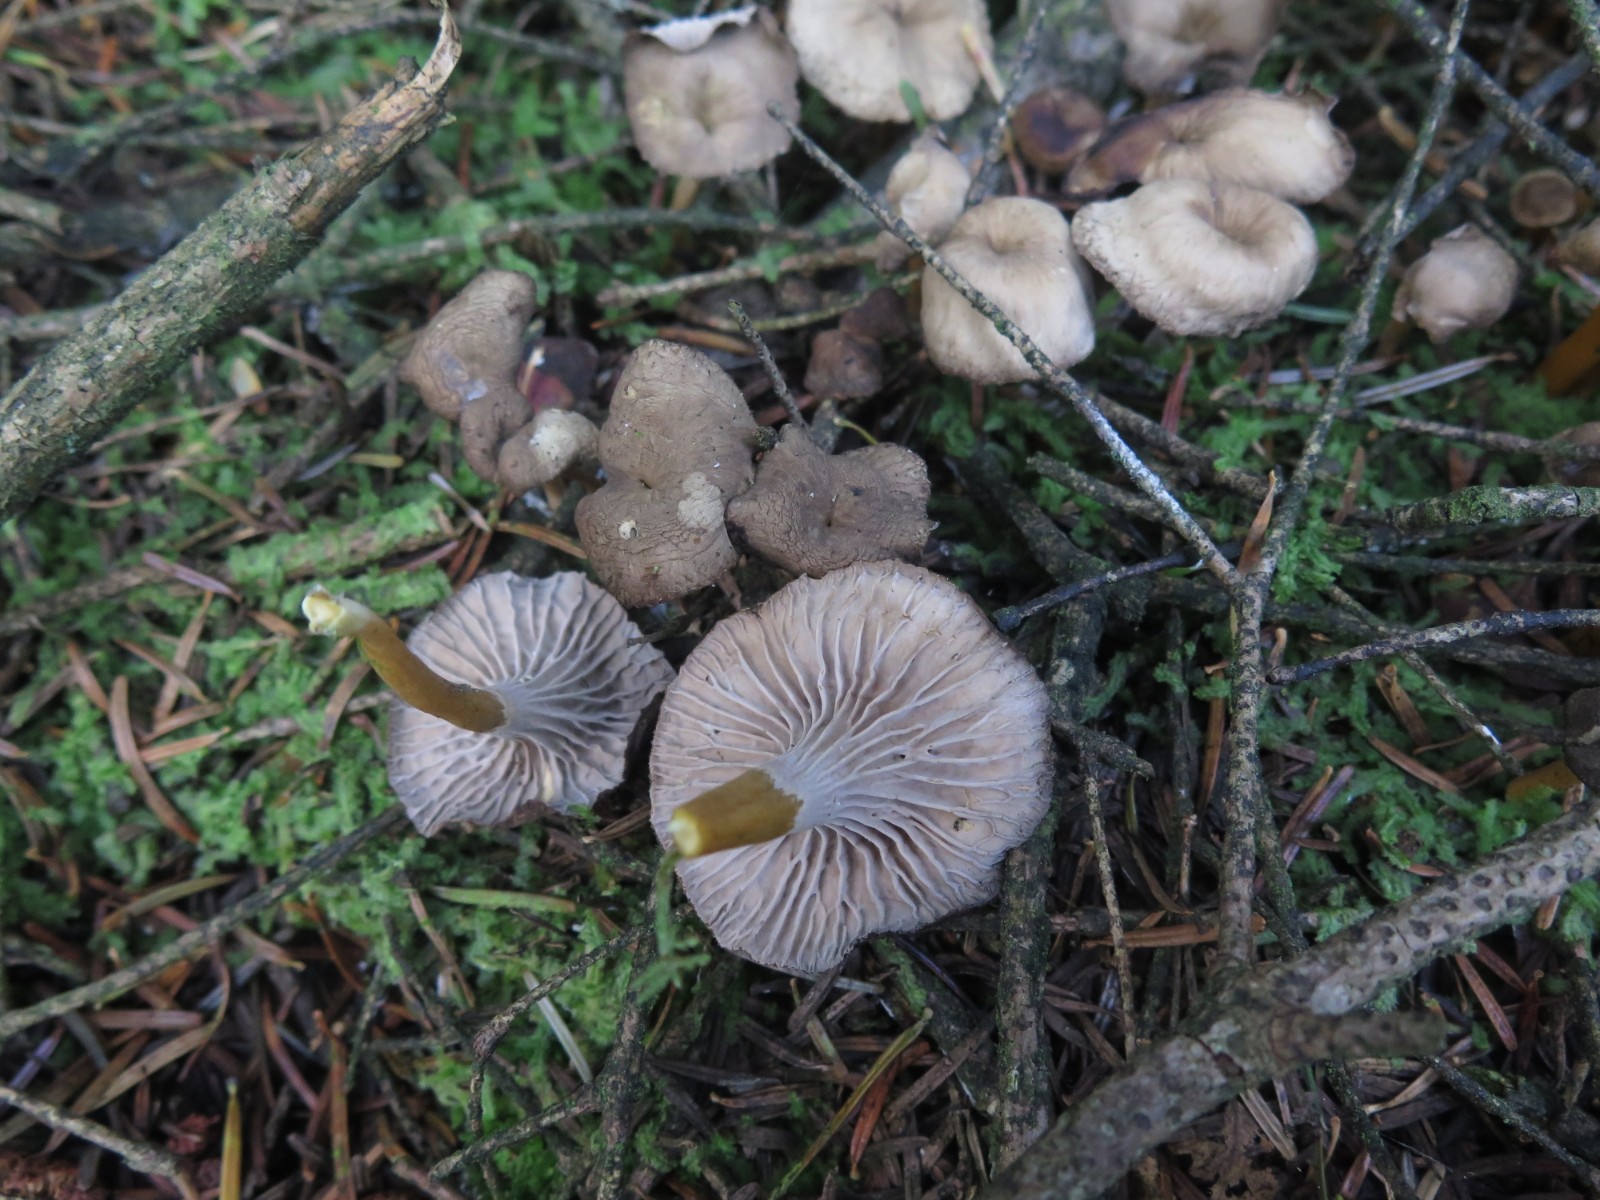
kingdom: Fungi
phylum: Basidiomycota
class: Agaricomycetes
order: Cantharellales
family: Hydnaceae
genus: Craterellus
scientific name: Craterellus tubaeformis
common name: tragt-kantarel
